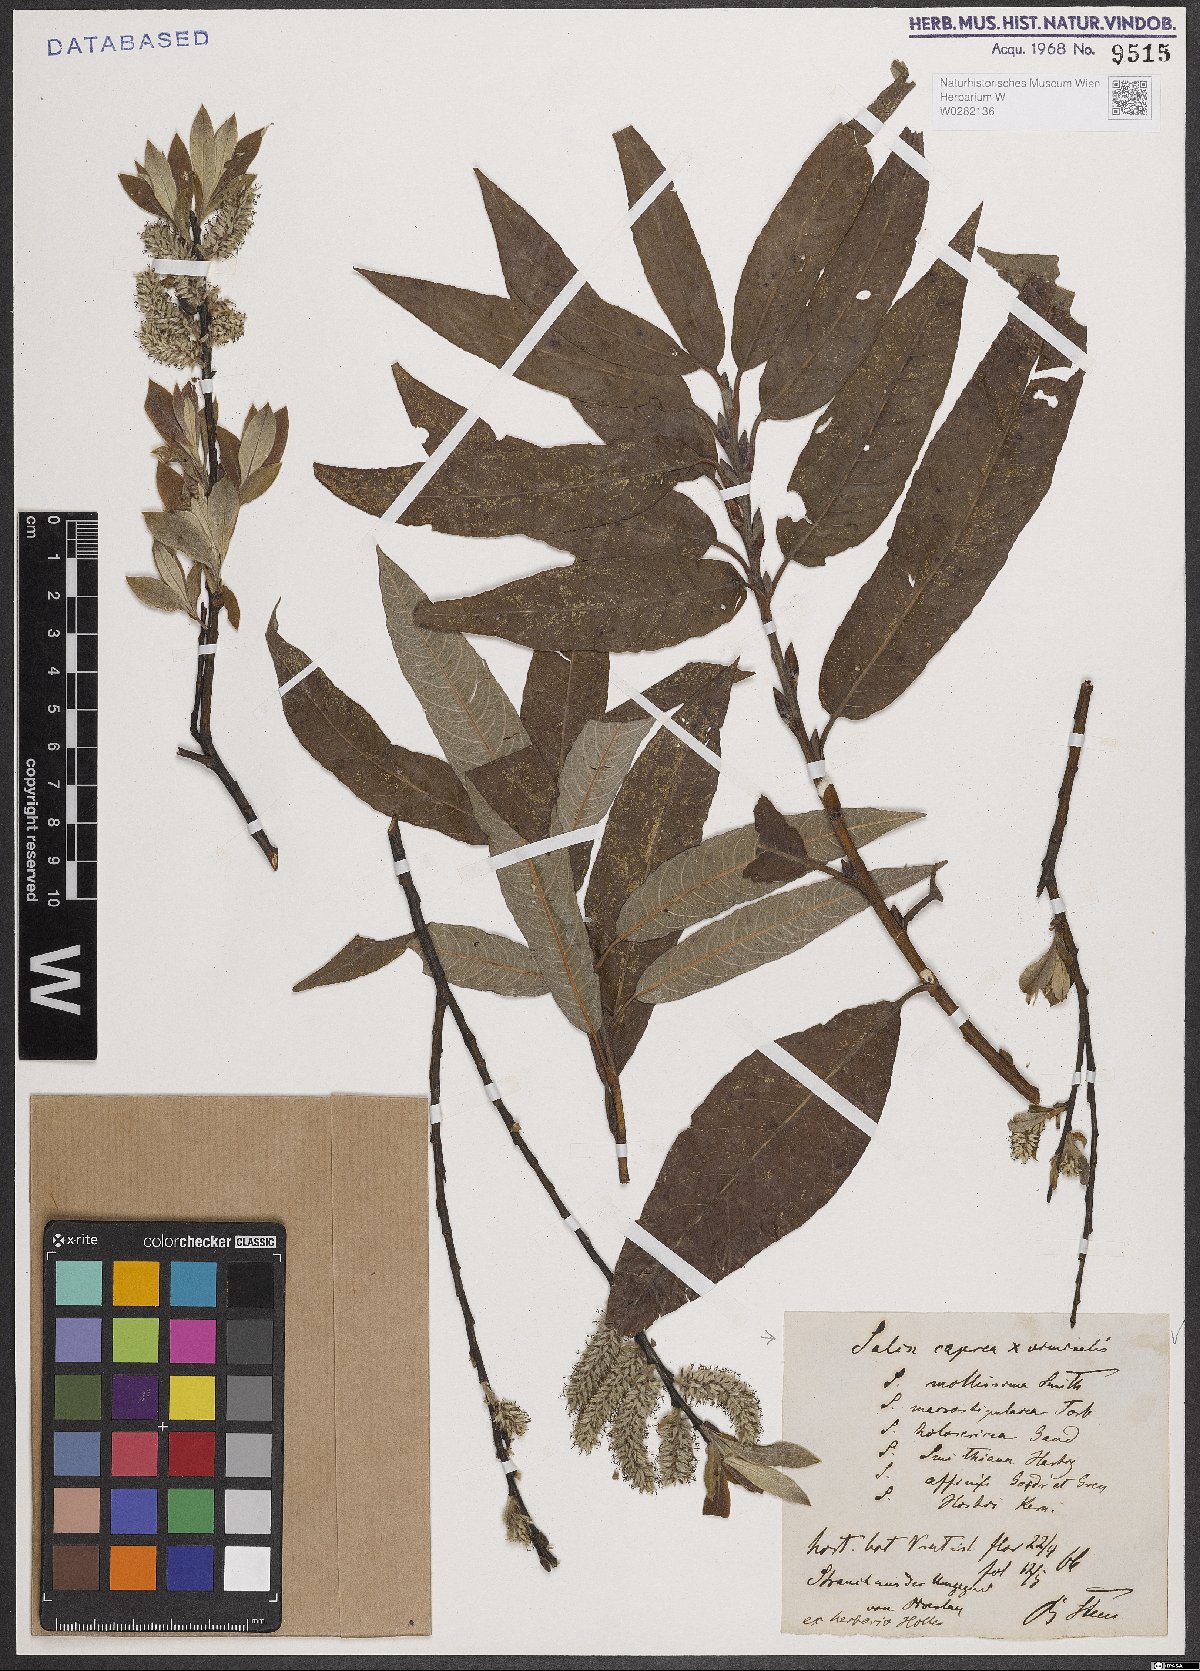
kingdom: Plantae
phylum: Tracheophyta
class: Magnoliopsida
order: Malpighiales
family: Salicaceae
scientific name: Salicaceae
